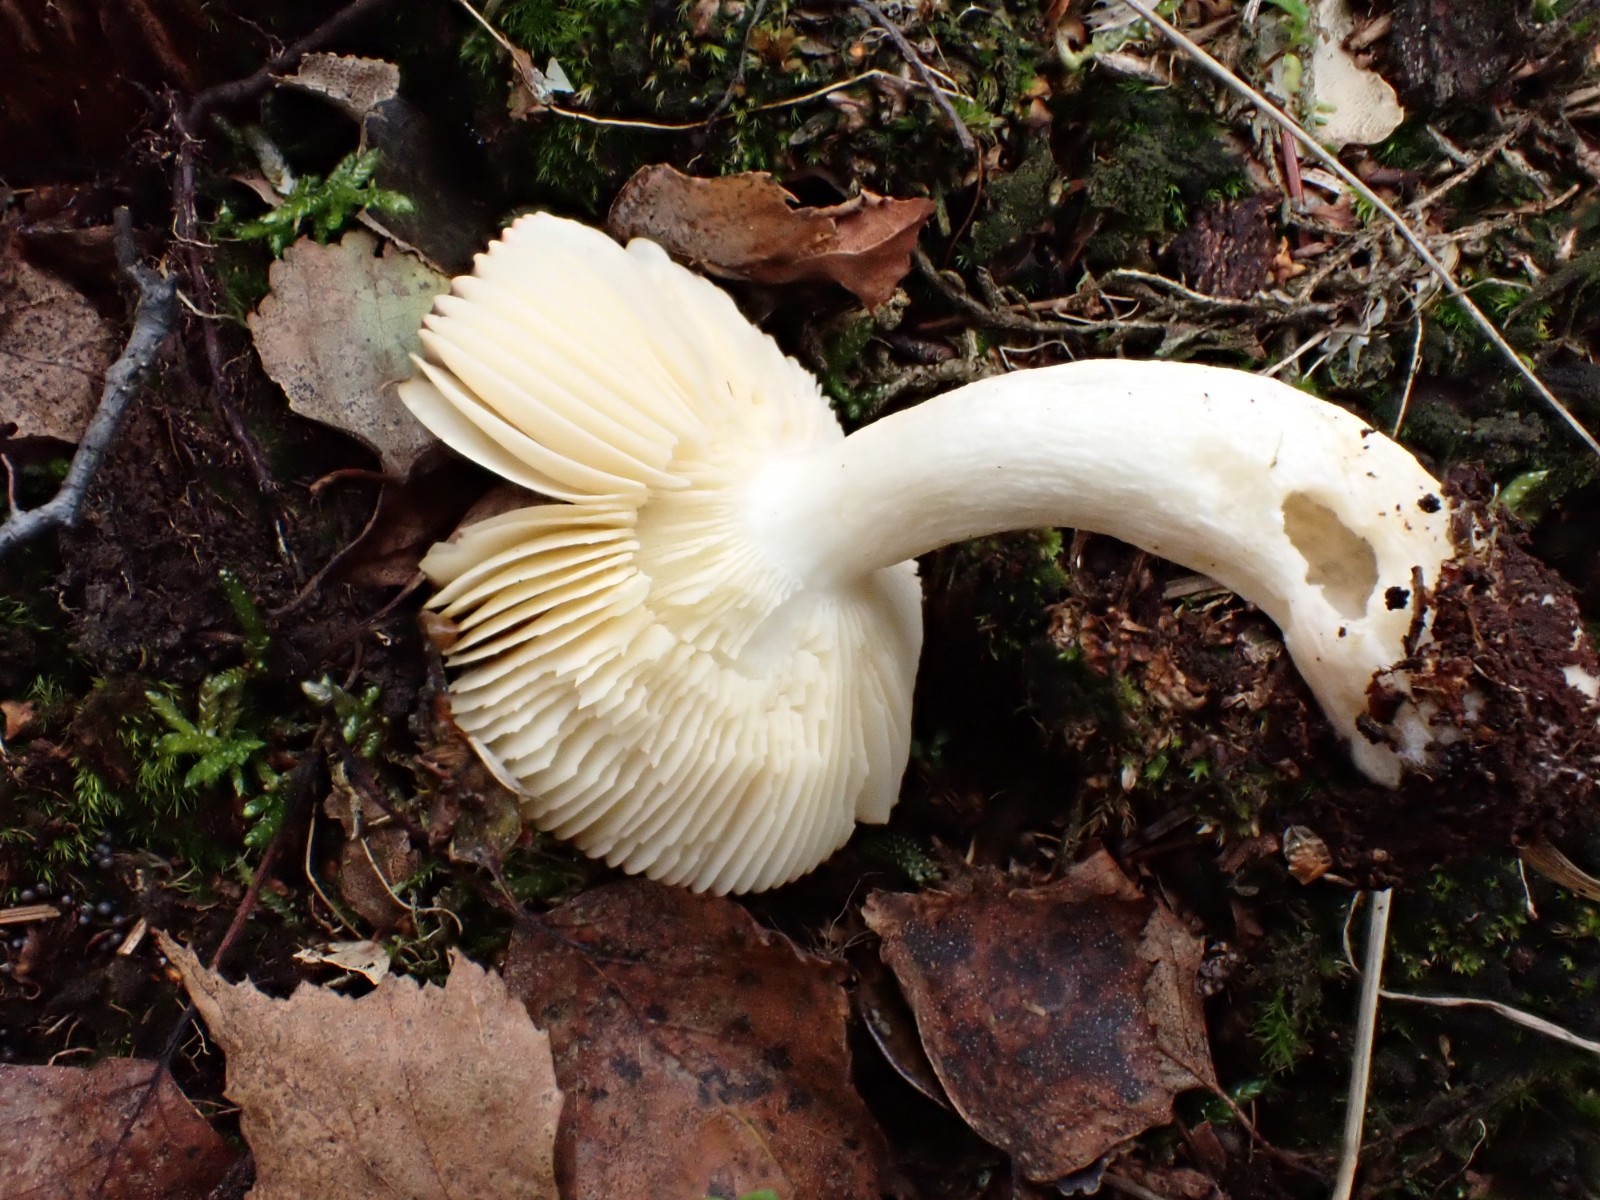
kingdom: Fungi
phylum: Basidiomycota
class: Agaricomycetes
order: Russulales
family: Russulaceae
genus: Russula
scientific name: Russula nitida
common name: året skørhat
